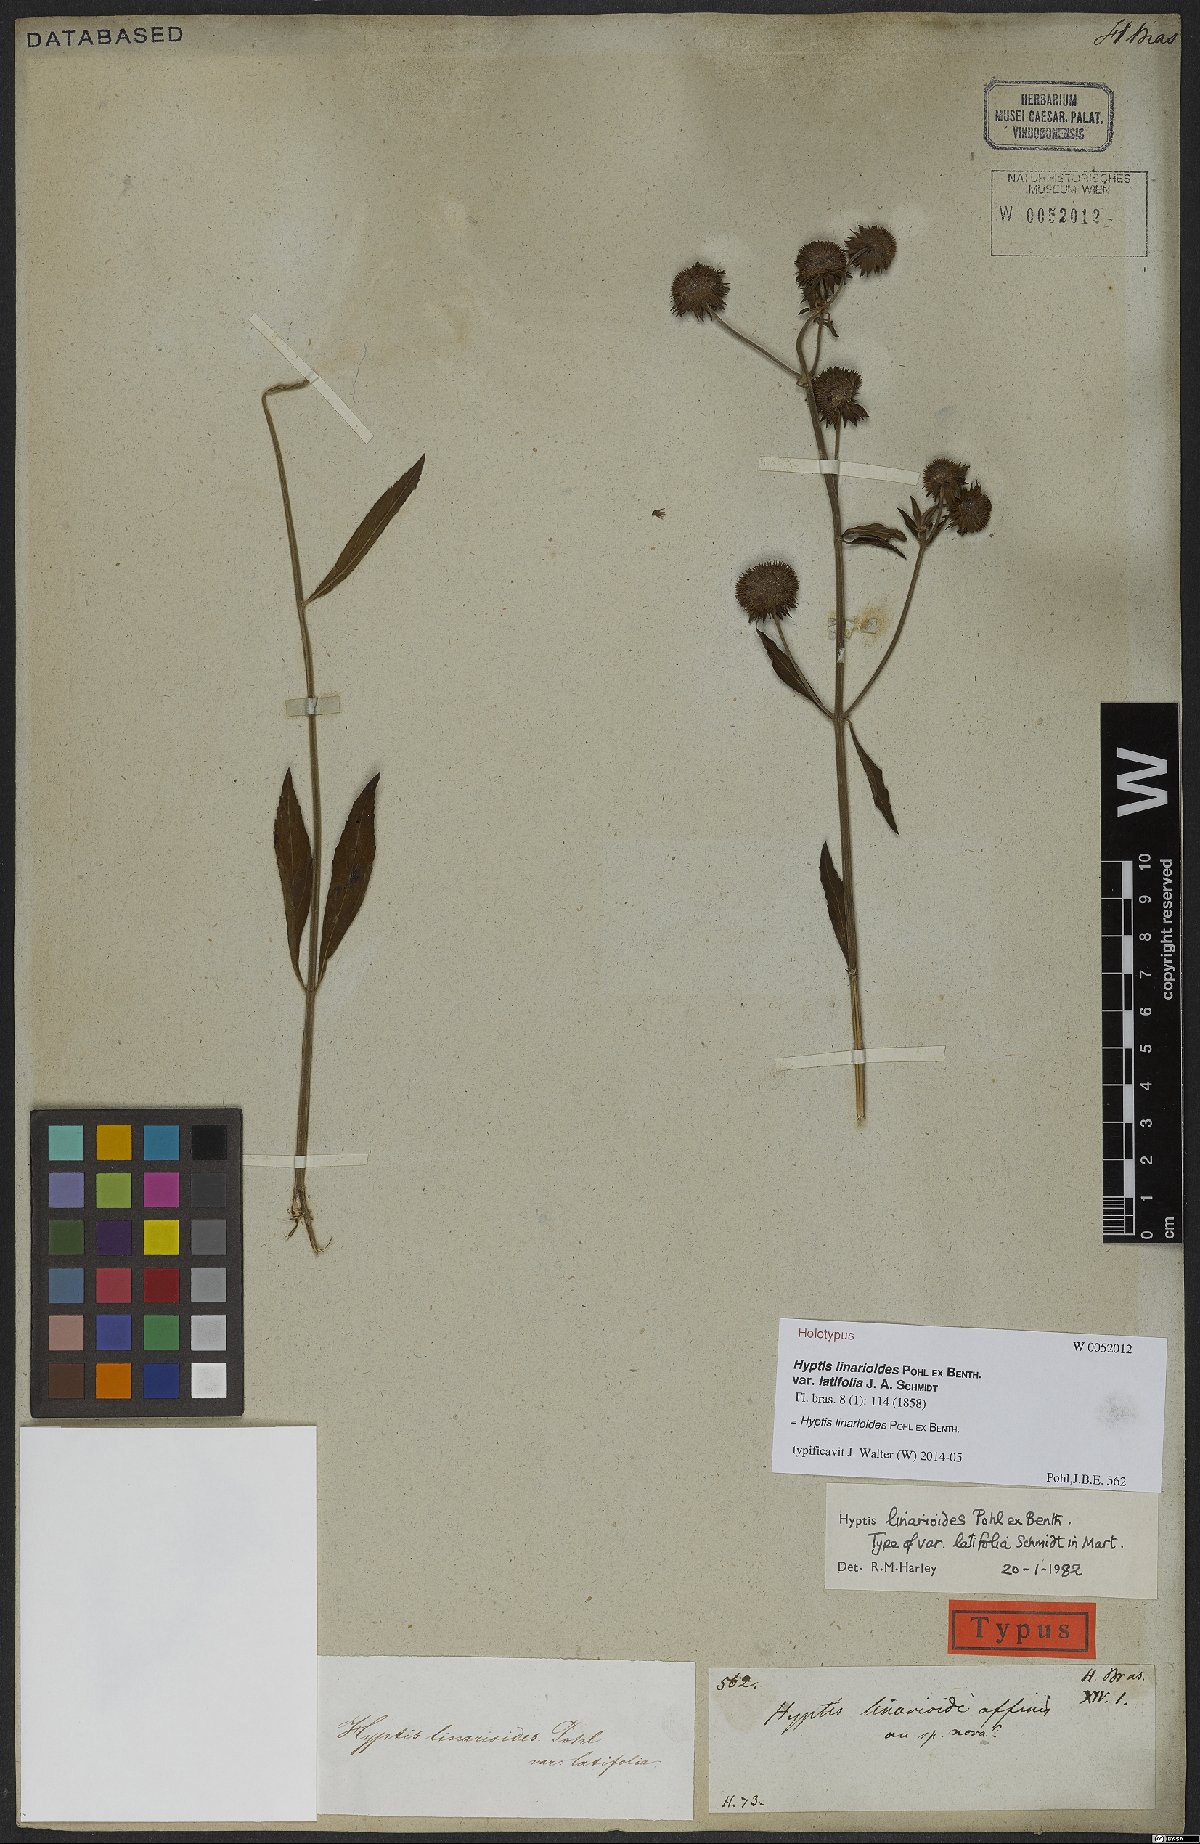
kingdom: Plantae
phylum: Tracheophyta
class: Magnoliopsida
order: Lamiales
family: Lamiaceae
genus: Hyptis
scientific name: Hyptis linarioides
